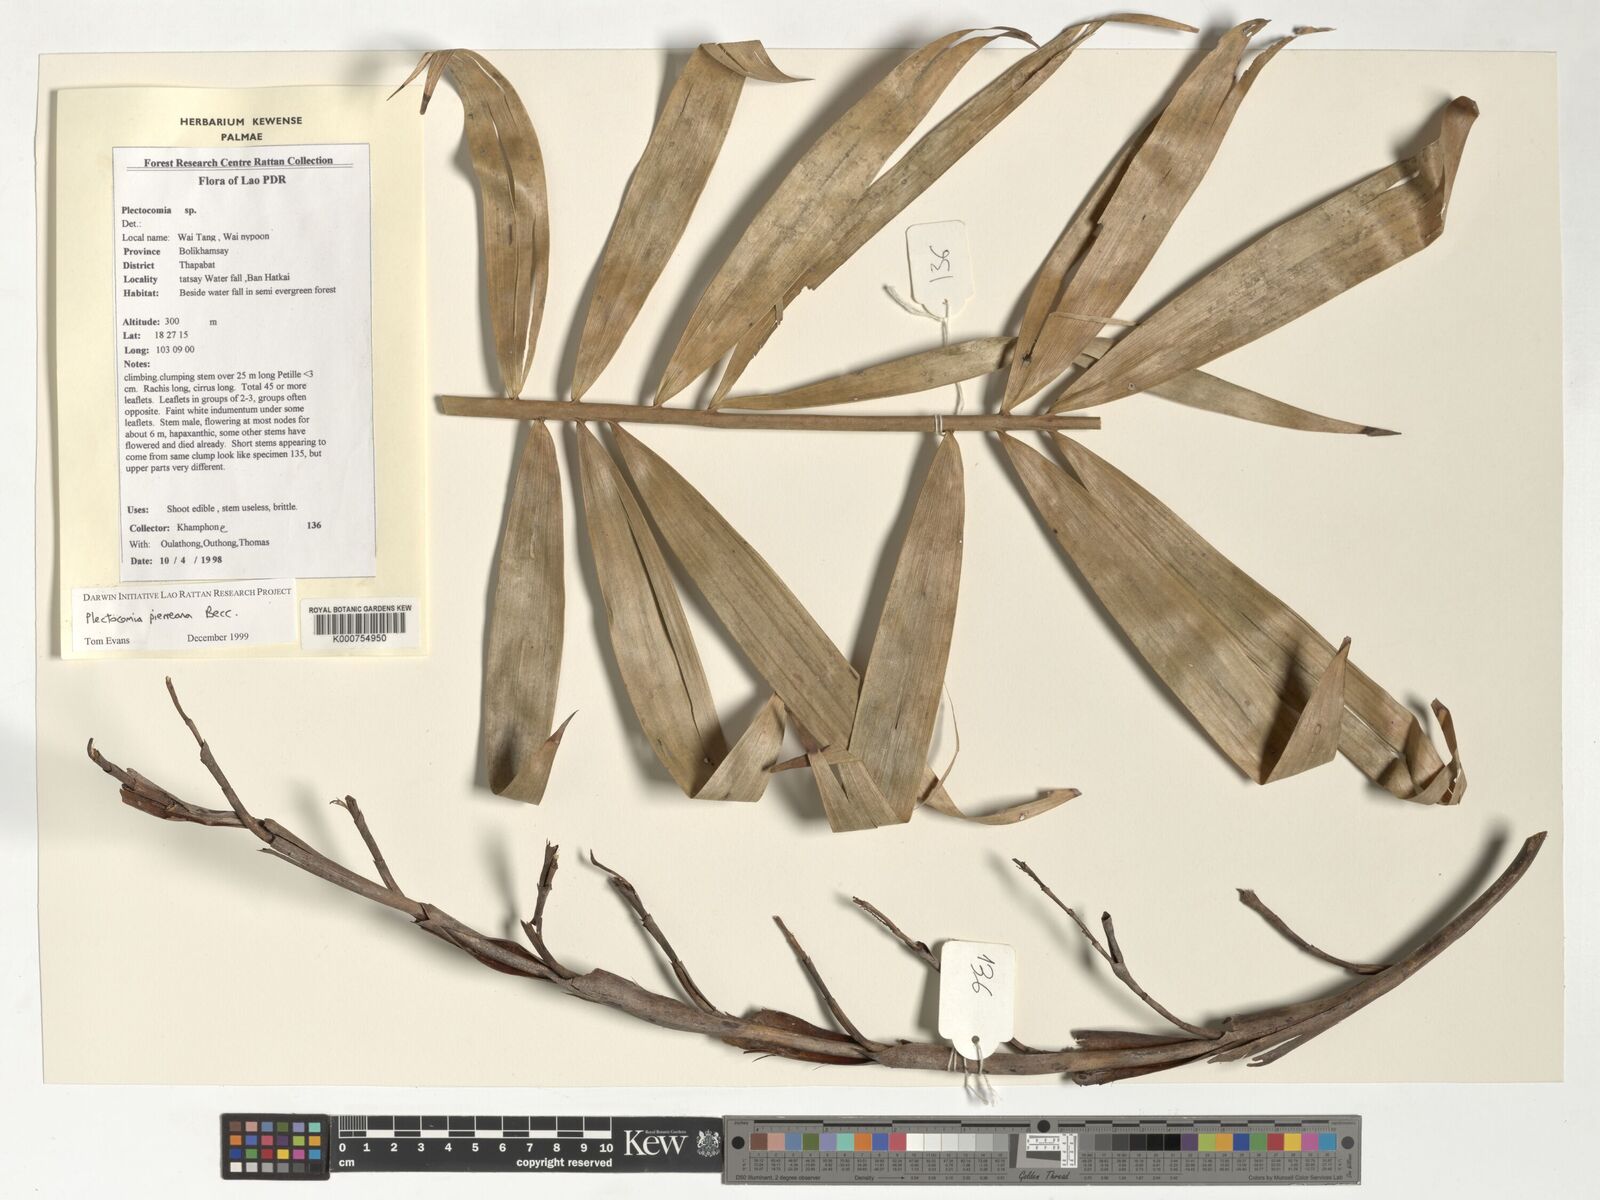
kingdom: Plantae
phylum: Tracheophyta
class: Liliopsida
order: Arecales
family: Arecaceae
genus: Plectocomia
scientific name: Plectocomia pierreana
